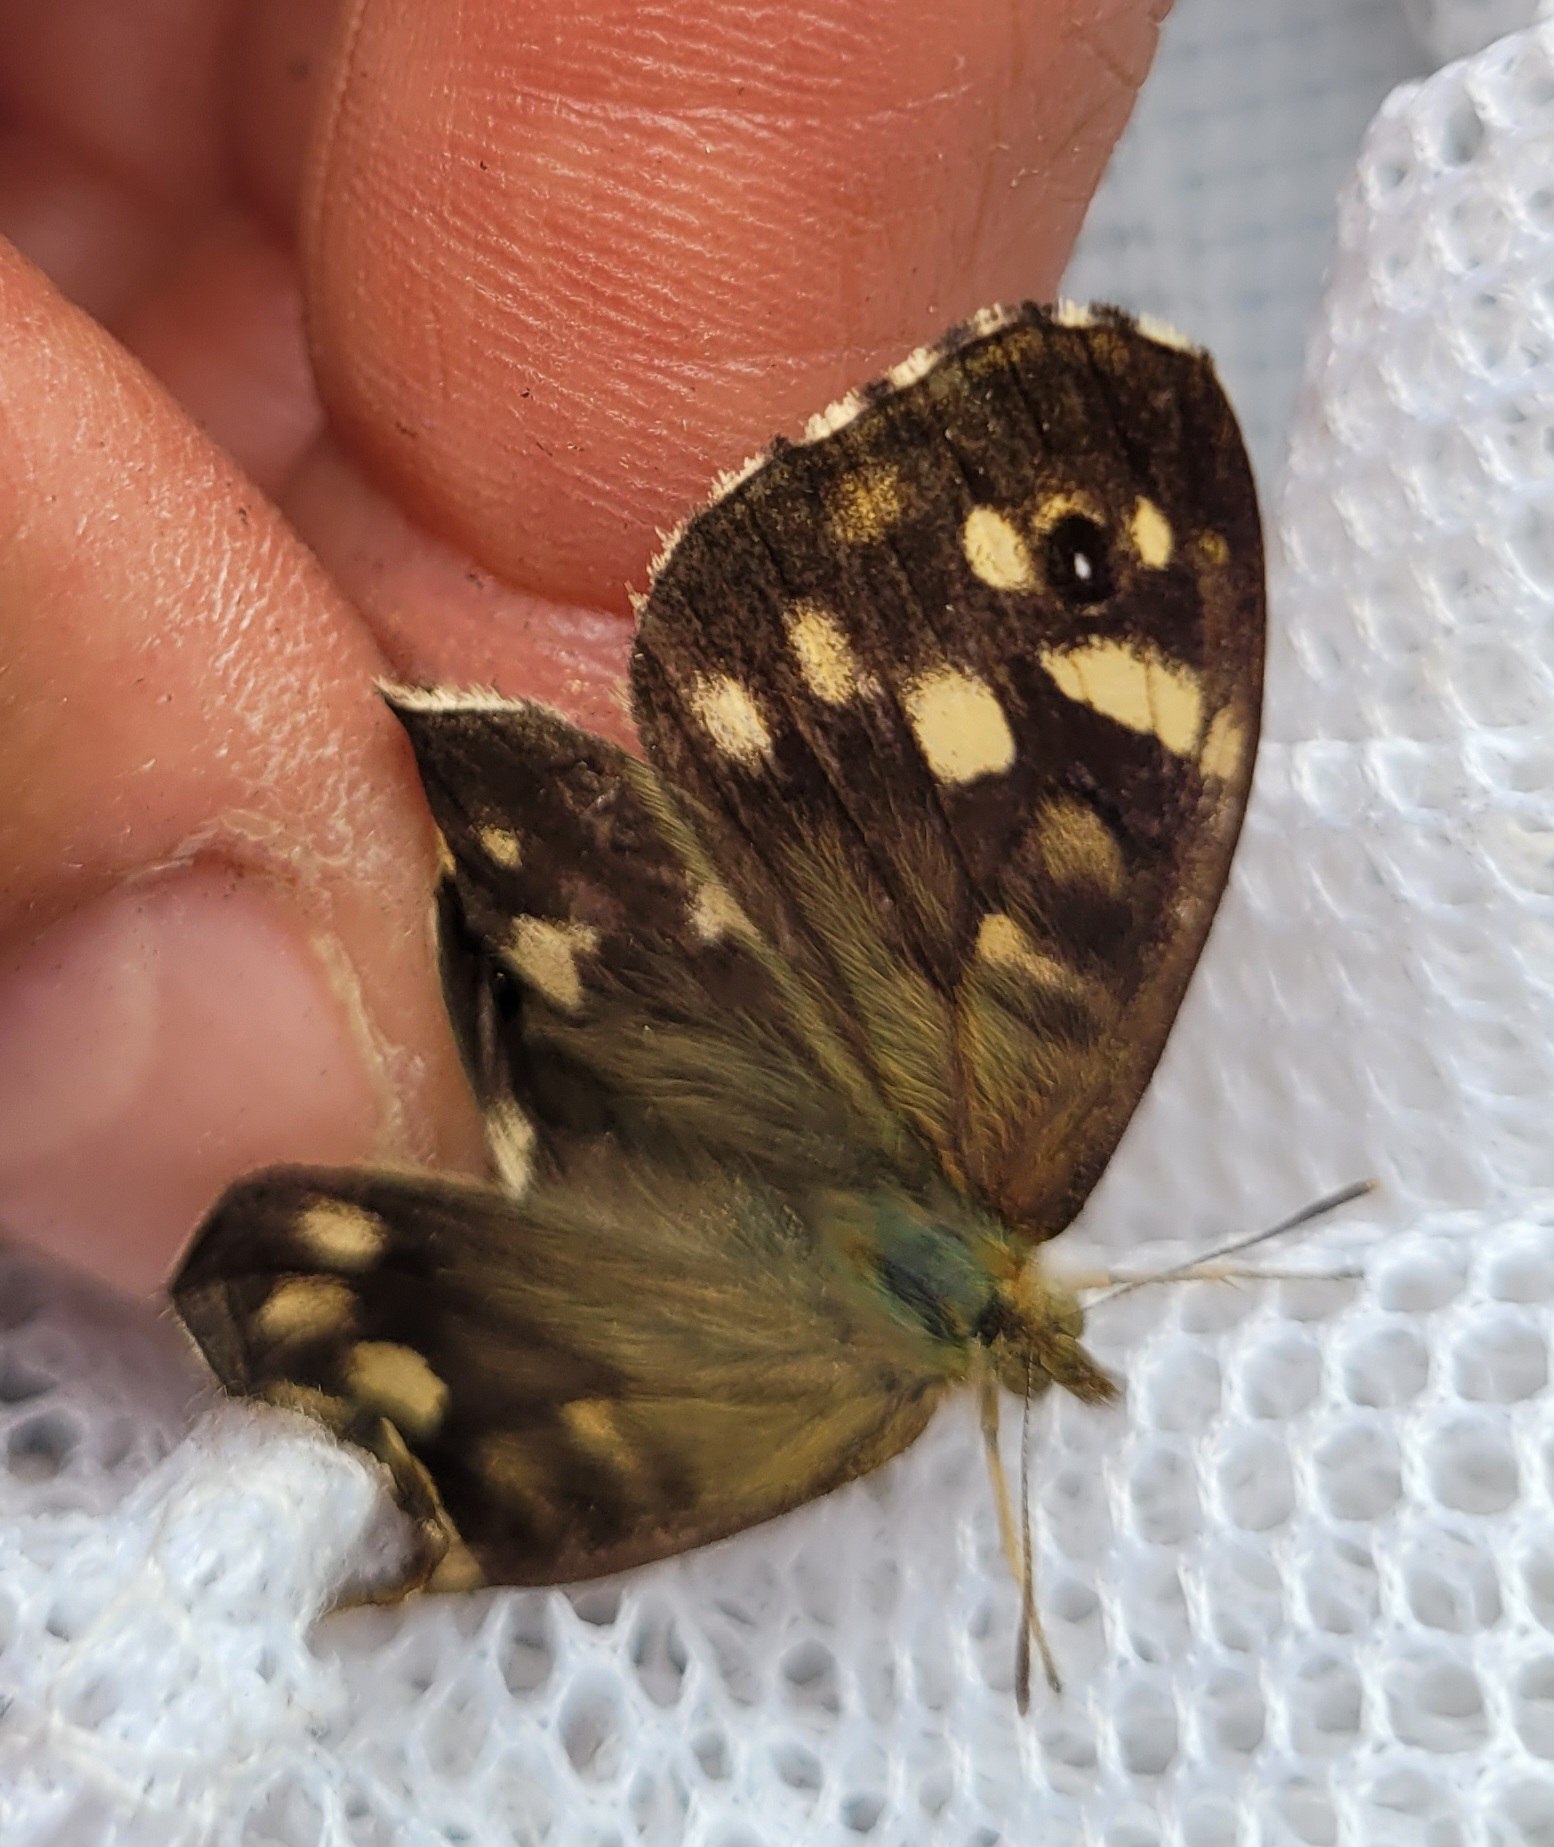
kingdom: Animalia
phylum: Arthropoda
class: Insecta
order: Lepidoptera
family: Nymphalidae
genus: Pararge
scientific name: Pararge aegeria
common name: Skovrandøje
